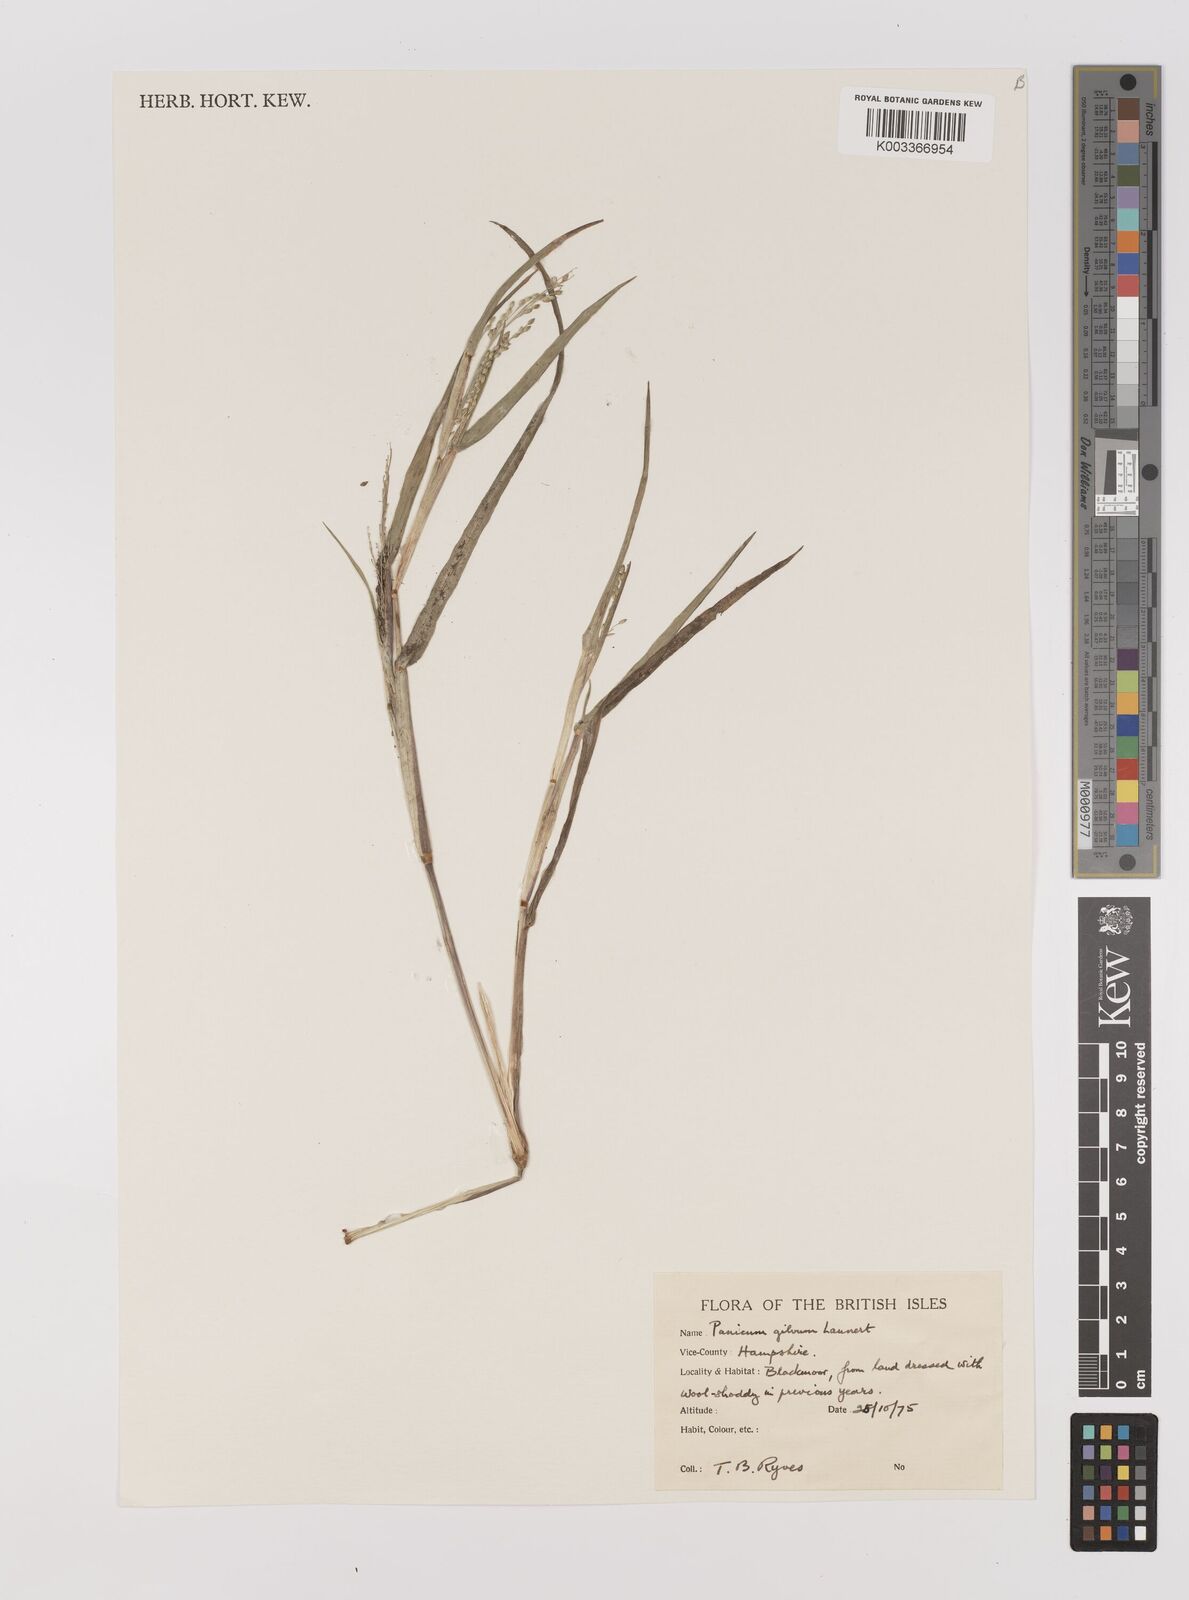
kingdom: Plantae
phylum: Tracheophyta
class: Liliopsida
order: Poales
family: Poaceae
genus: Panicum
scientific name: Panicum gilvum
